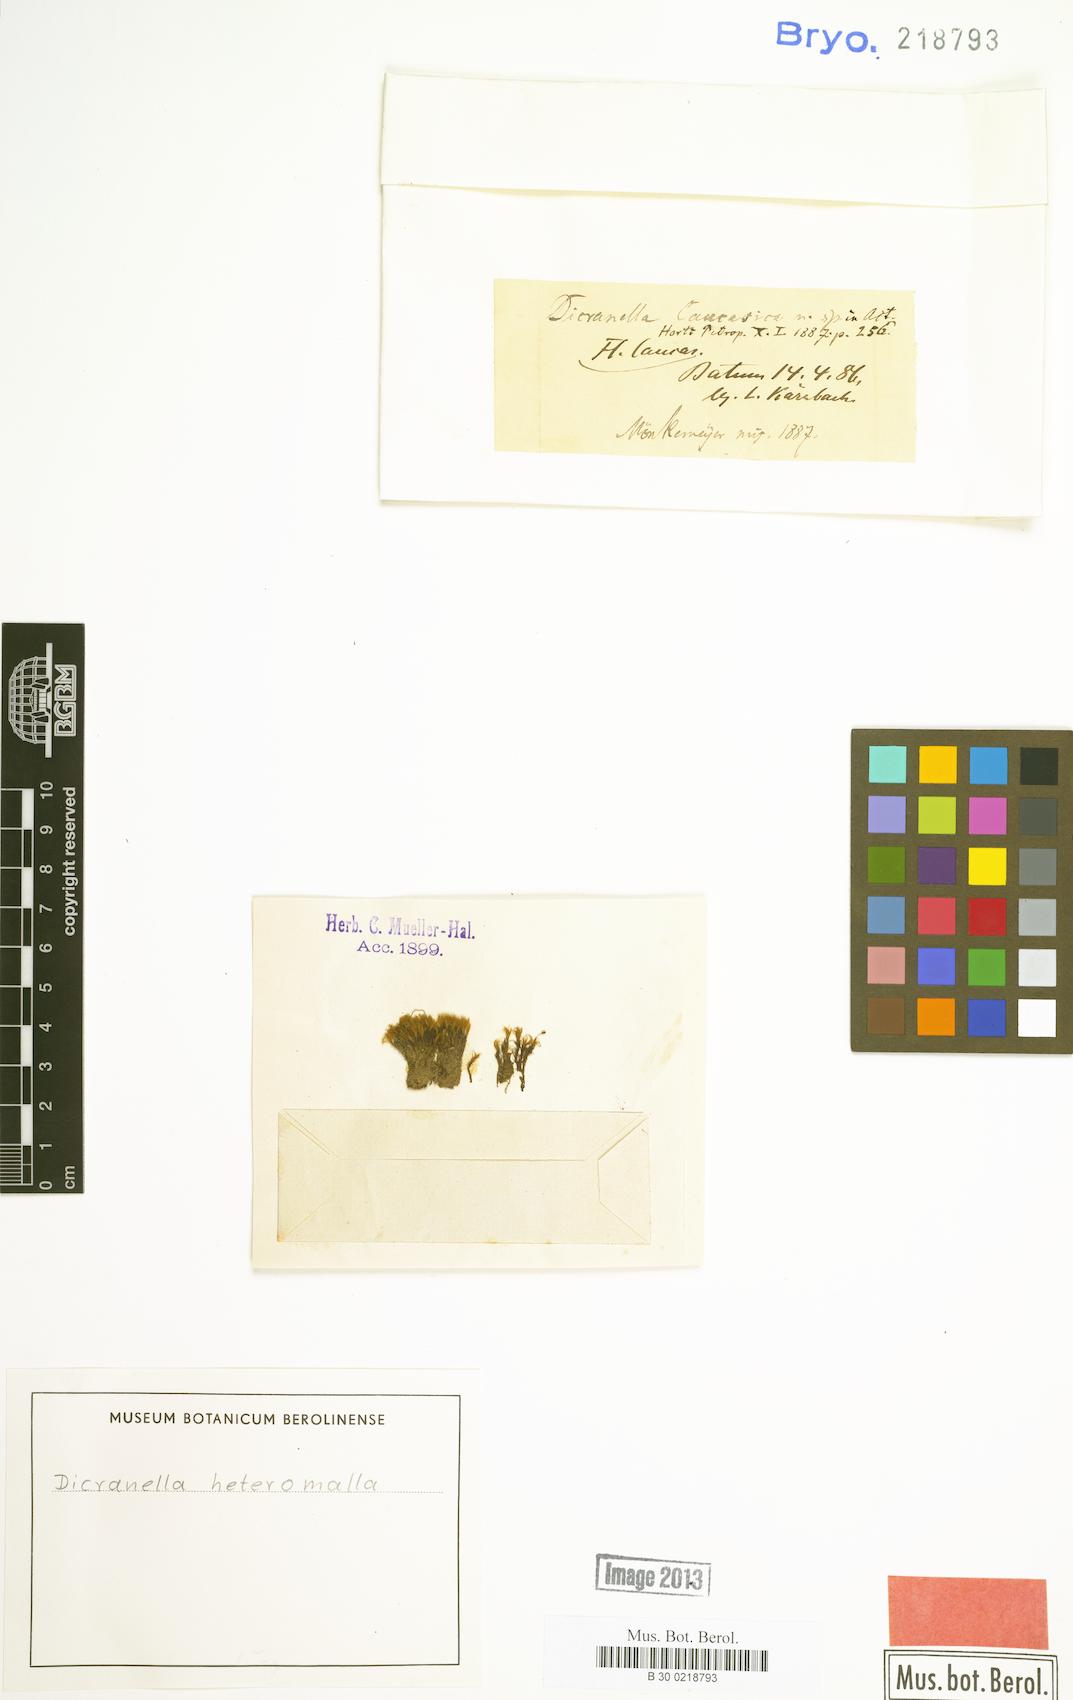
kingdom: Plantae
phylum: Bryophyta
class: Bryopsida
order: Dicranales
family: Dicranellaceae
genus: Dicranella
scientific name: Dicranella heteromalla
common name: Silky forklet moss
